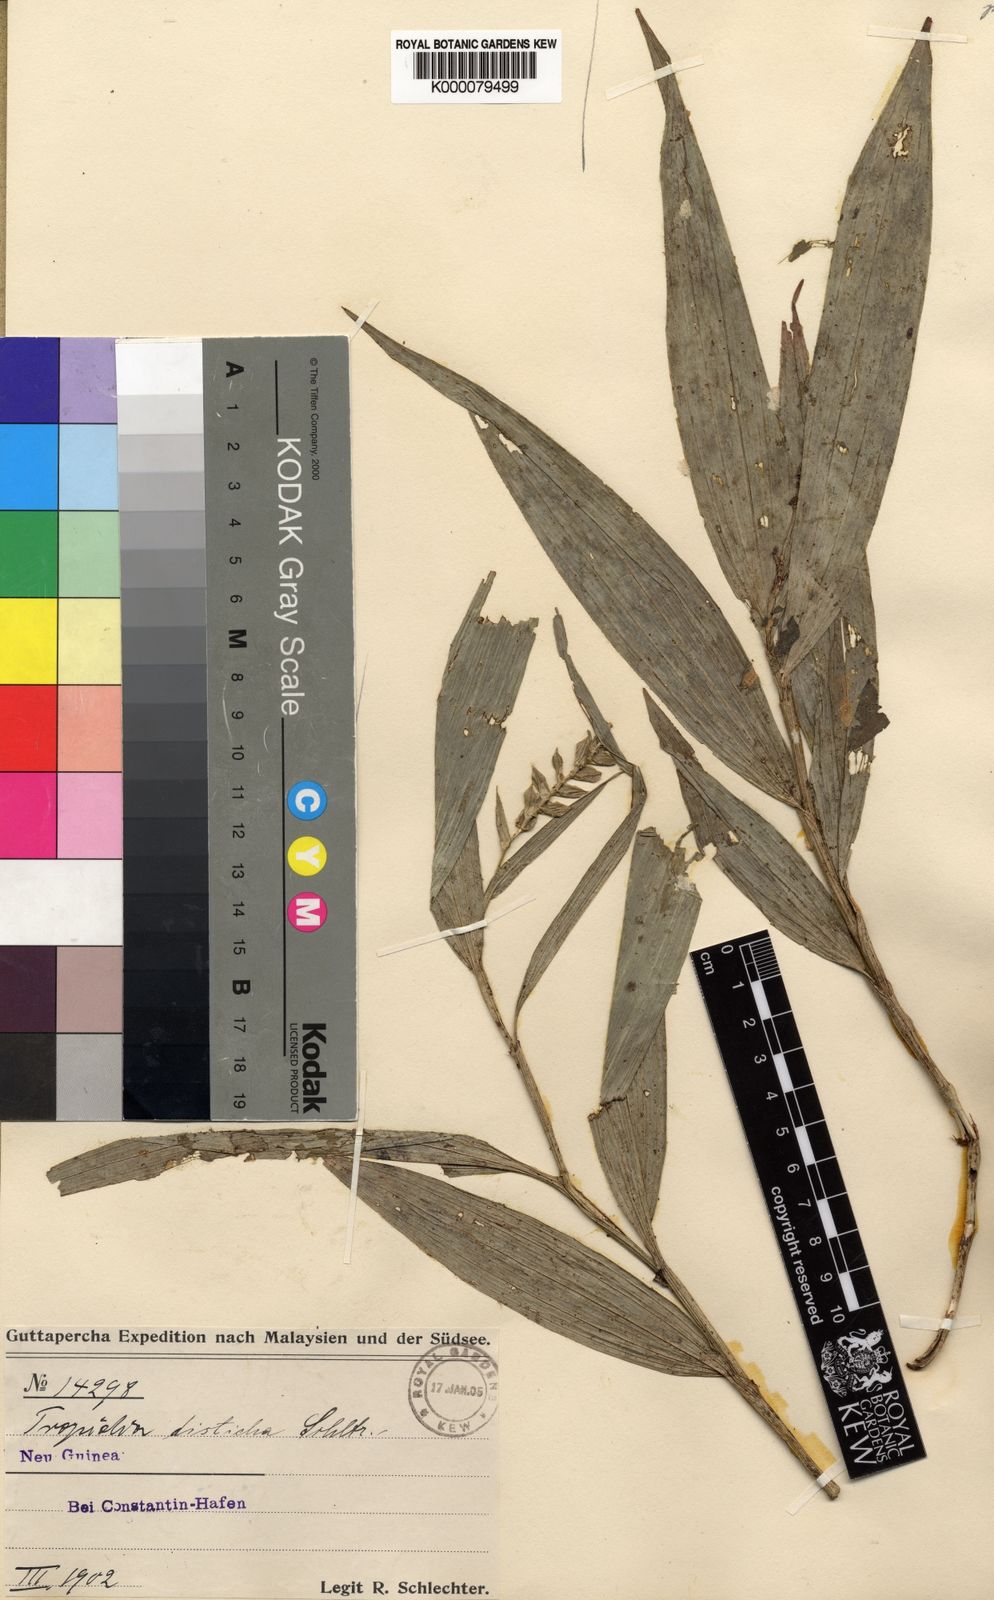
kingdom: Plantae
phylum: Tracheophyta
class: Liliopsida
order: Asparagales
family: Orchidaceae
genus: Tropidia
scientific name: Tropidia disticha
